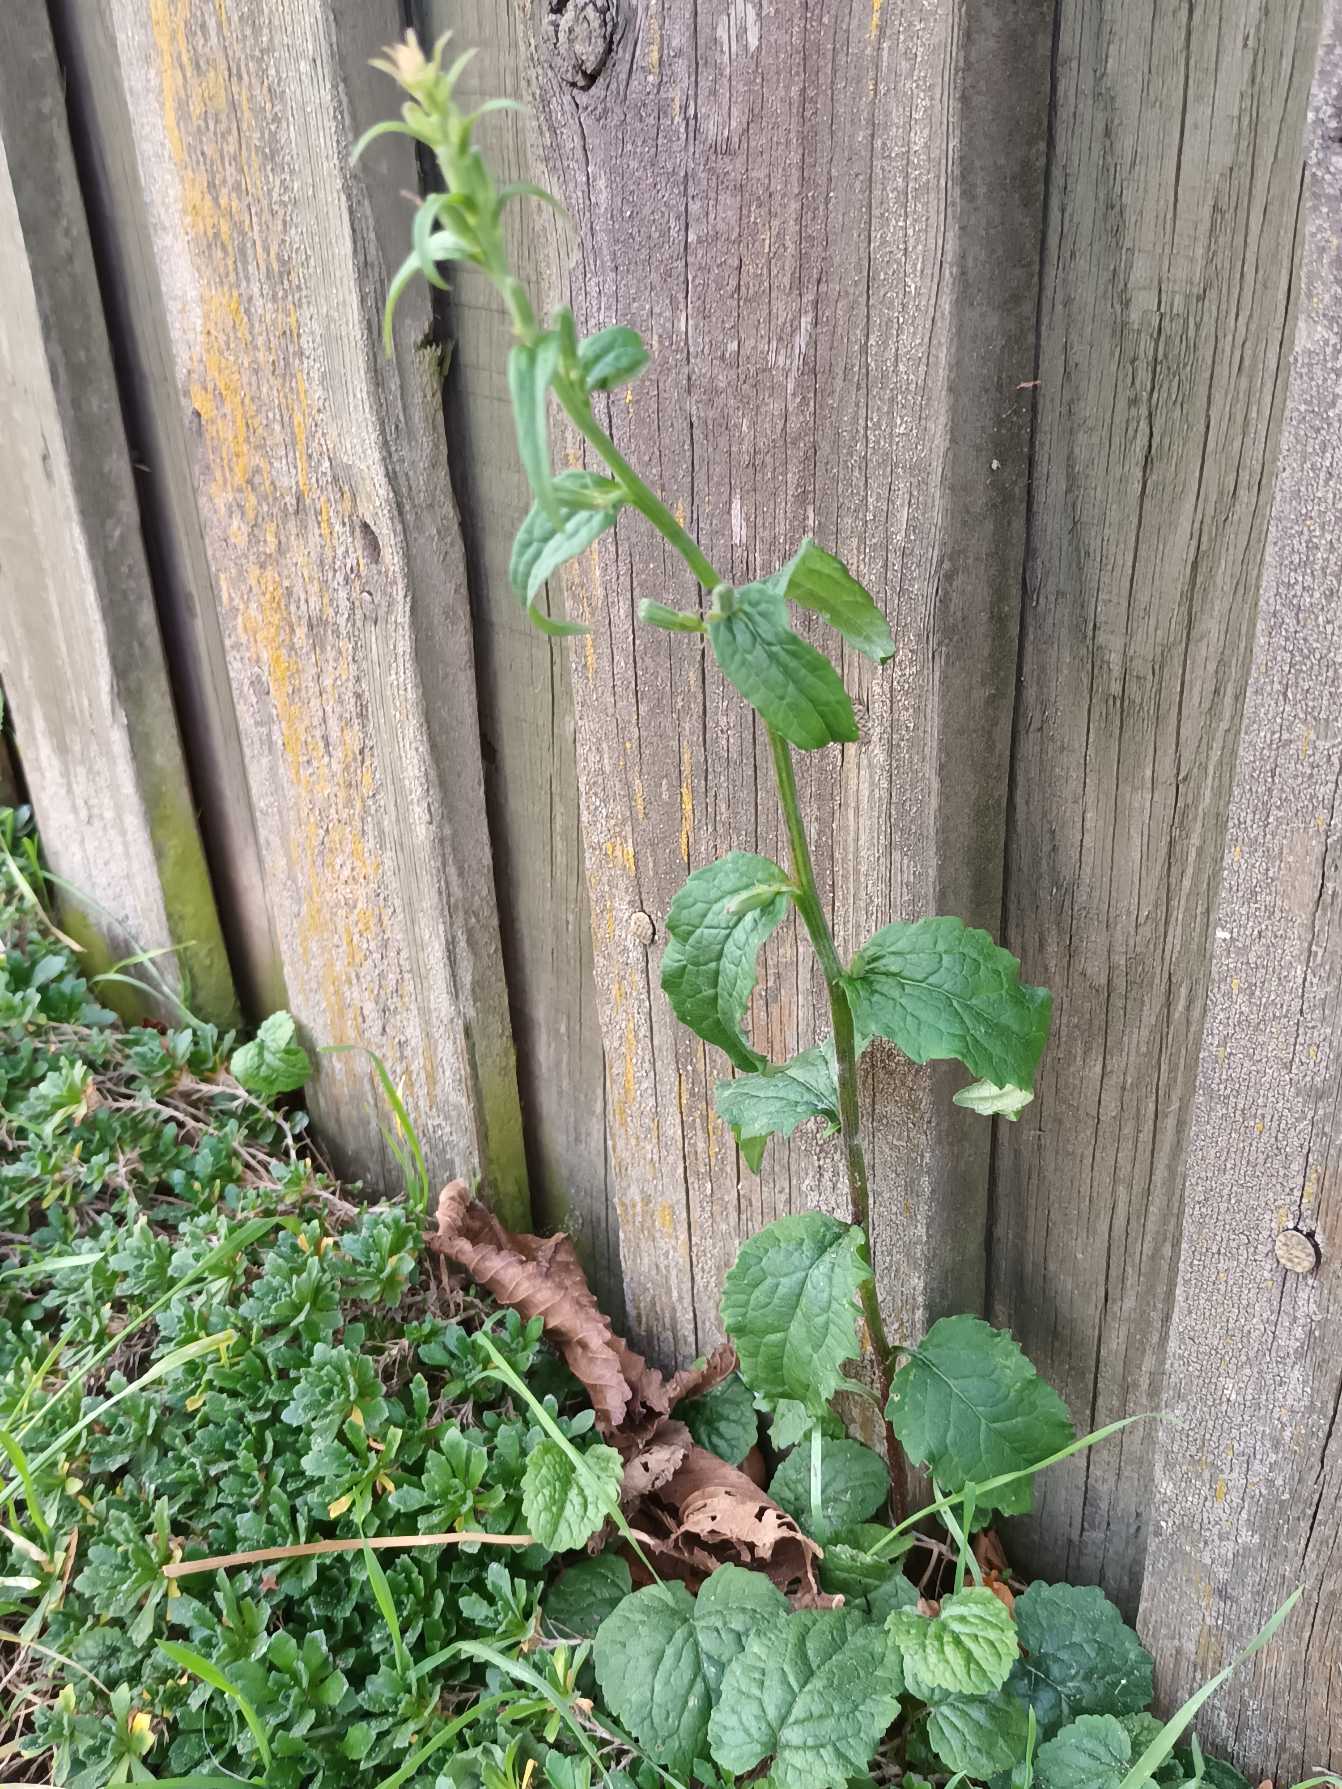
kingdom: Plantae
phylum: Tracheophyta
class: Magnoliopsida
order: Asterales
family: Campanulaceae
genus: Campanula
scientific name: Campanula rapunculoides
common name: Ensidig klokke
